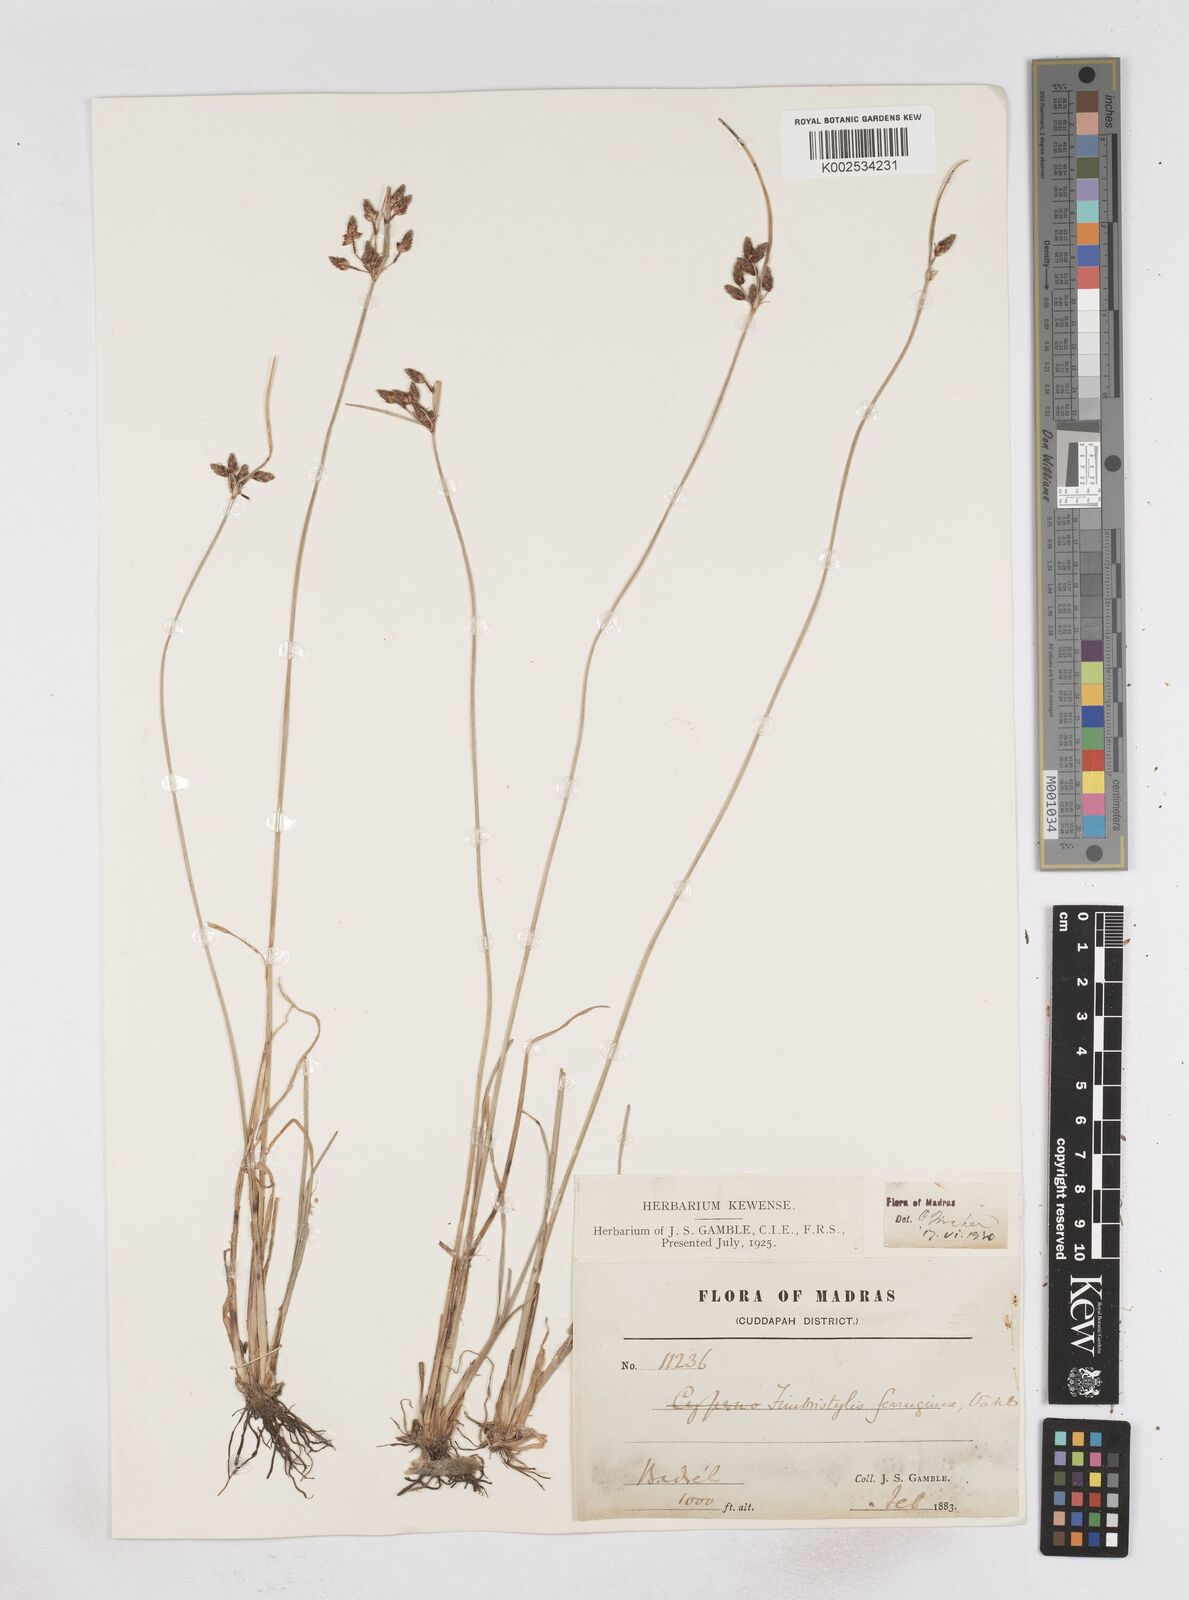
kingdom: Plantae
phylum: Tracheophyta
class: Liliopsida
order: Poales
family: Cyperaceae
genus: Fimbristylis
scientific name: Fimbristylis ferruginea
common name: West indian fimbry
